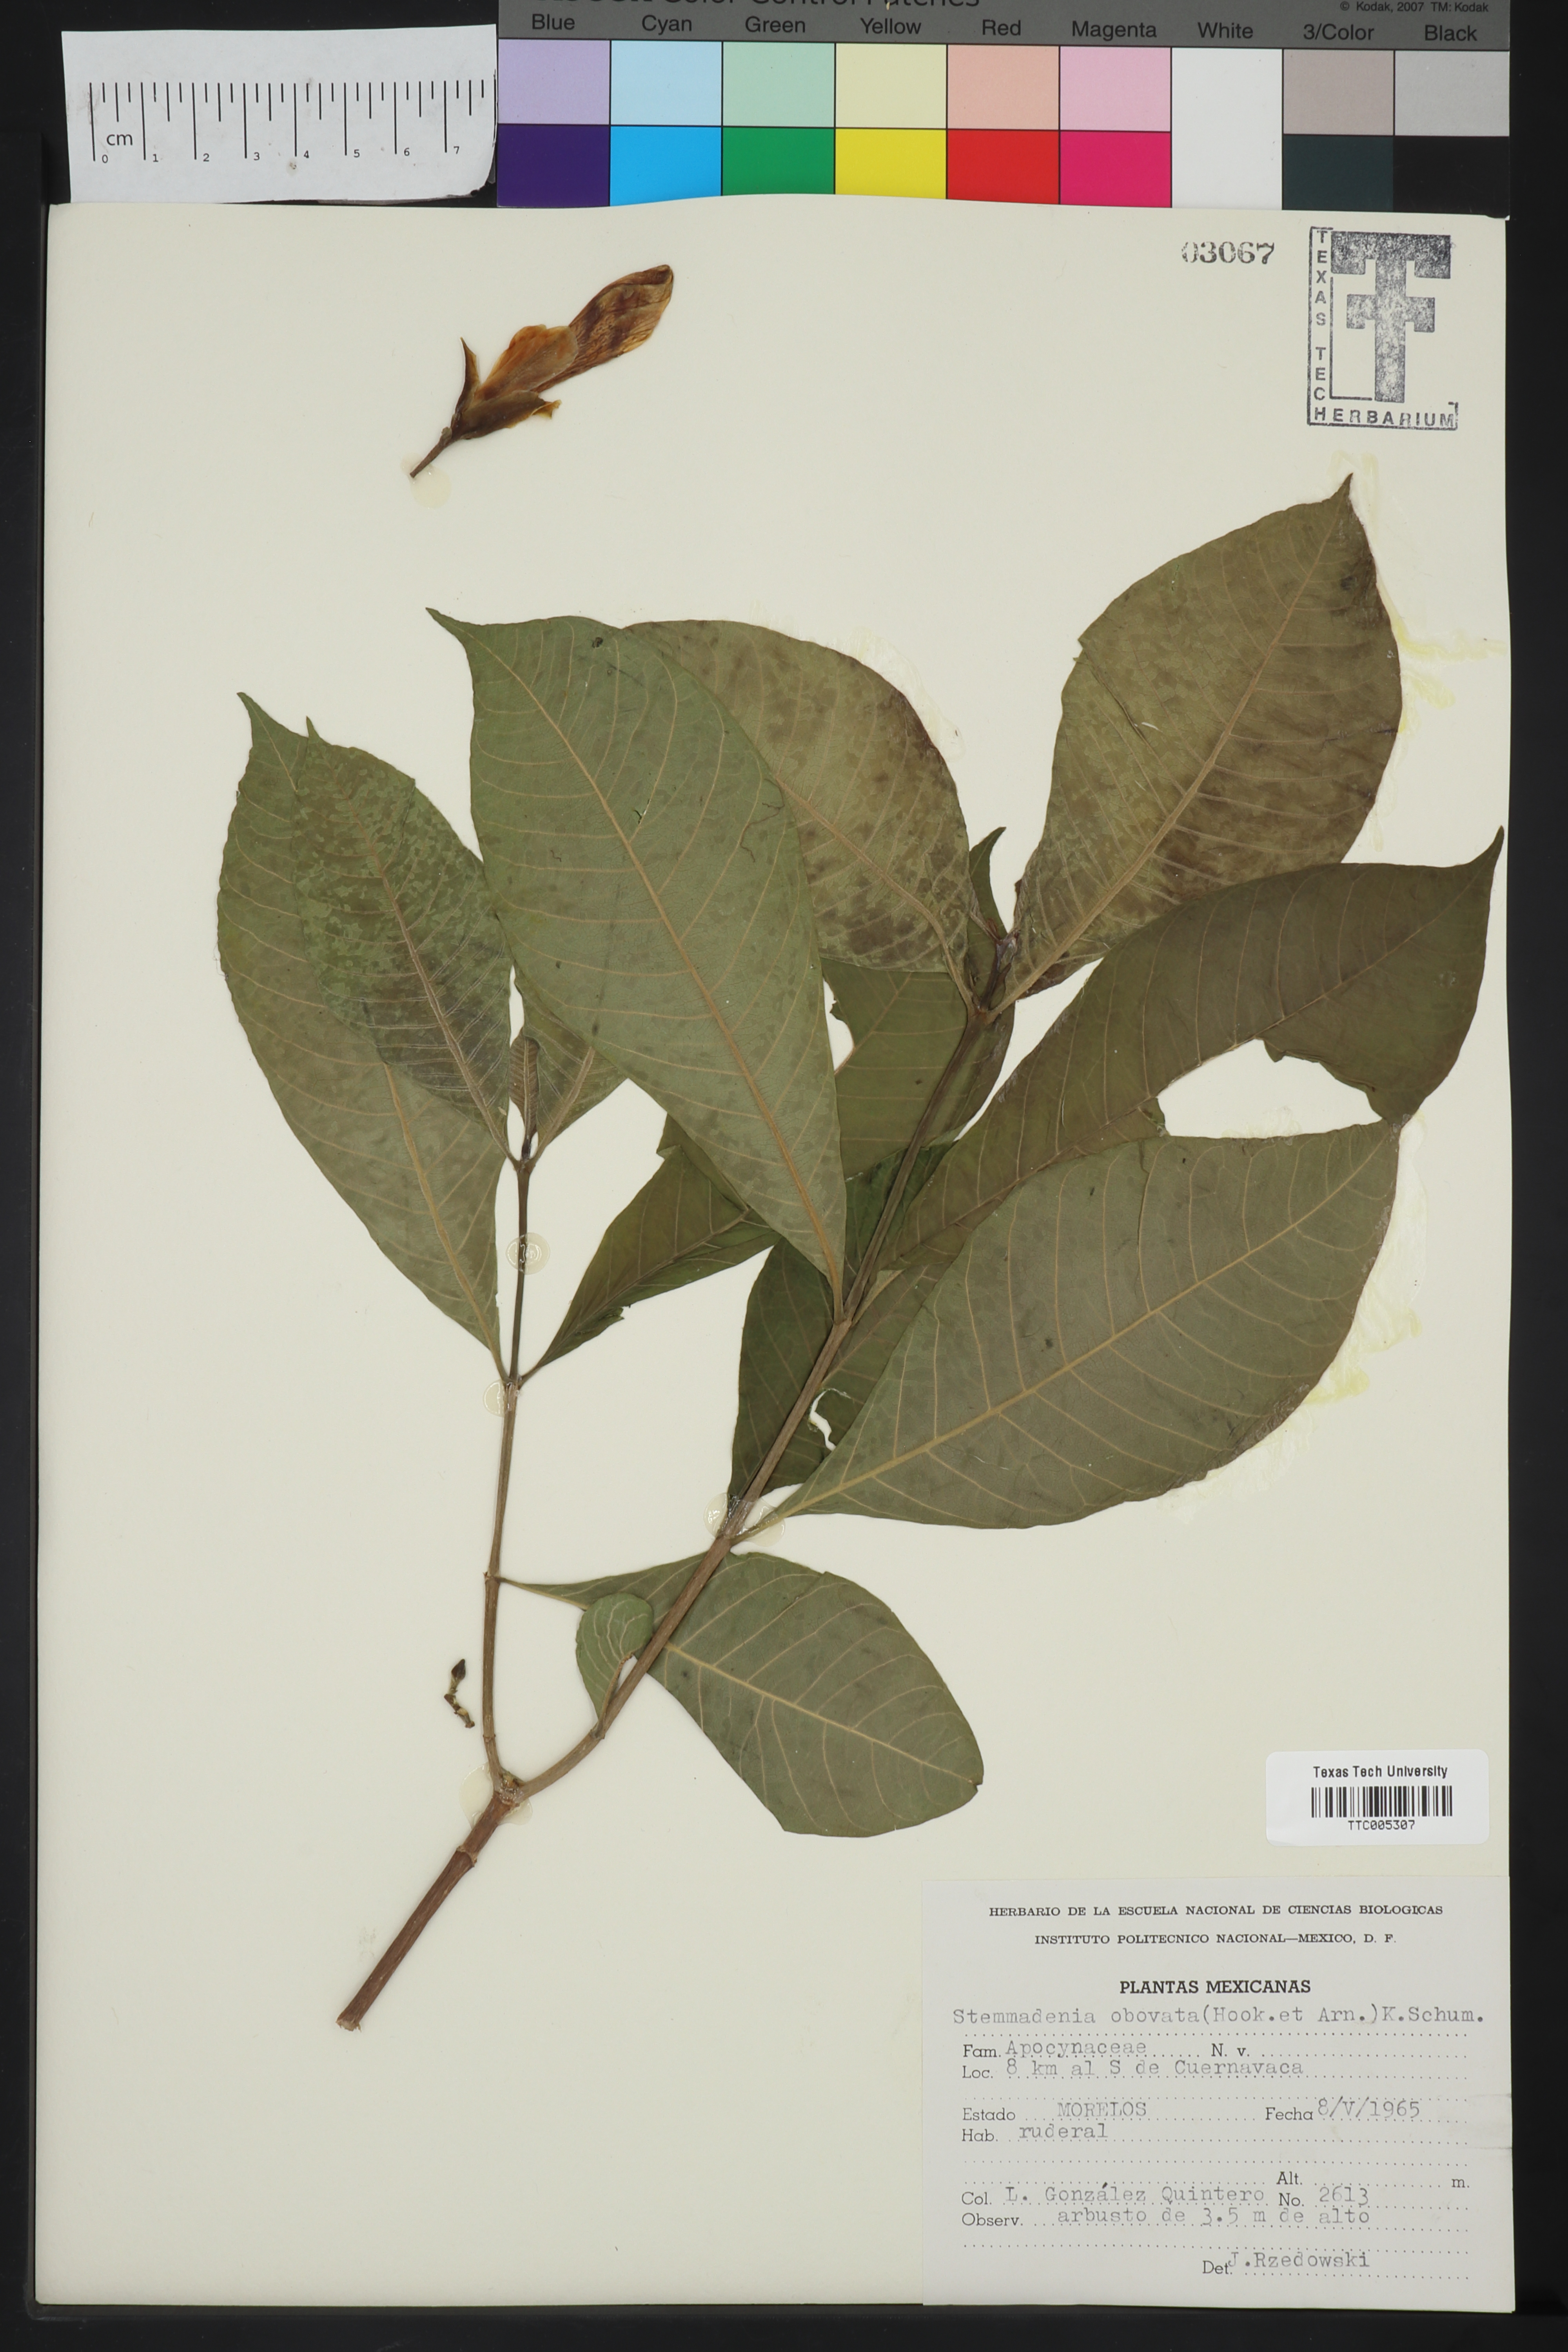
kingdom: Plantae
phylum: Tracheophyta
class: Magnoliopsida
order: Gentianales
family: Apocynaceae
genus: Tabernaemontana
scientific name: Tabernaemontana glabra
